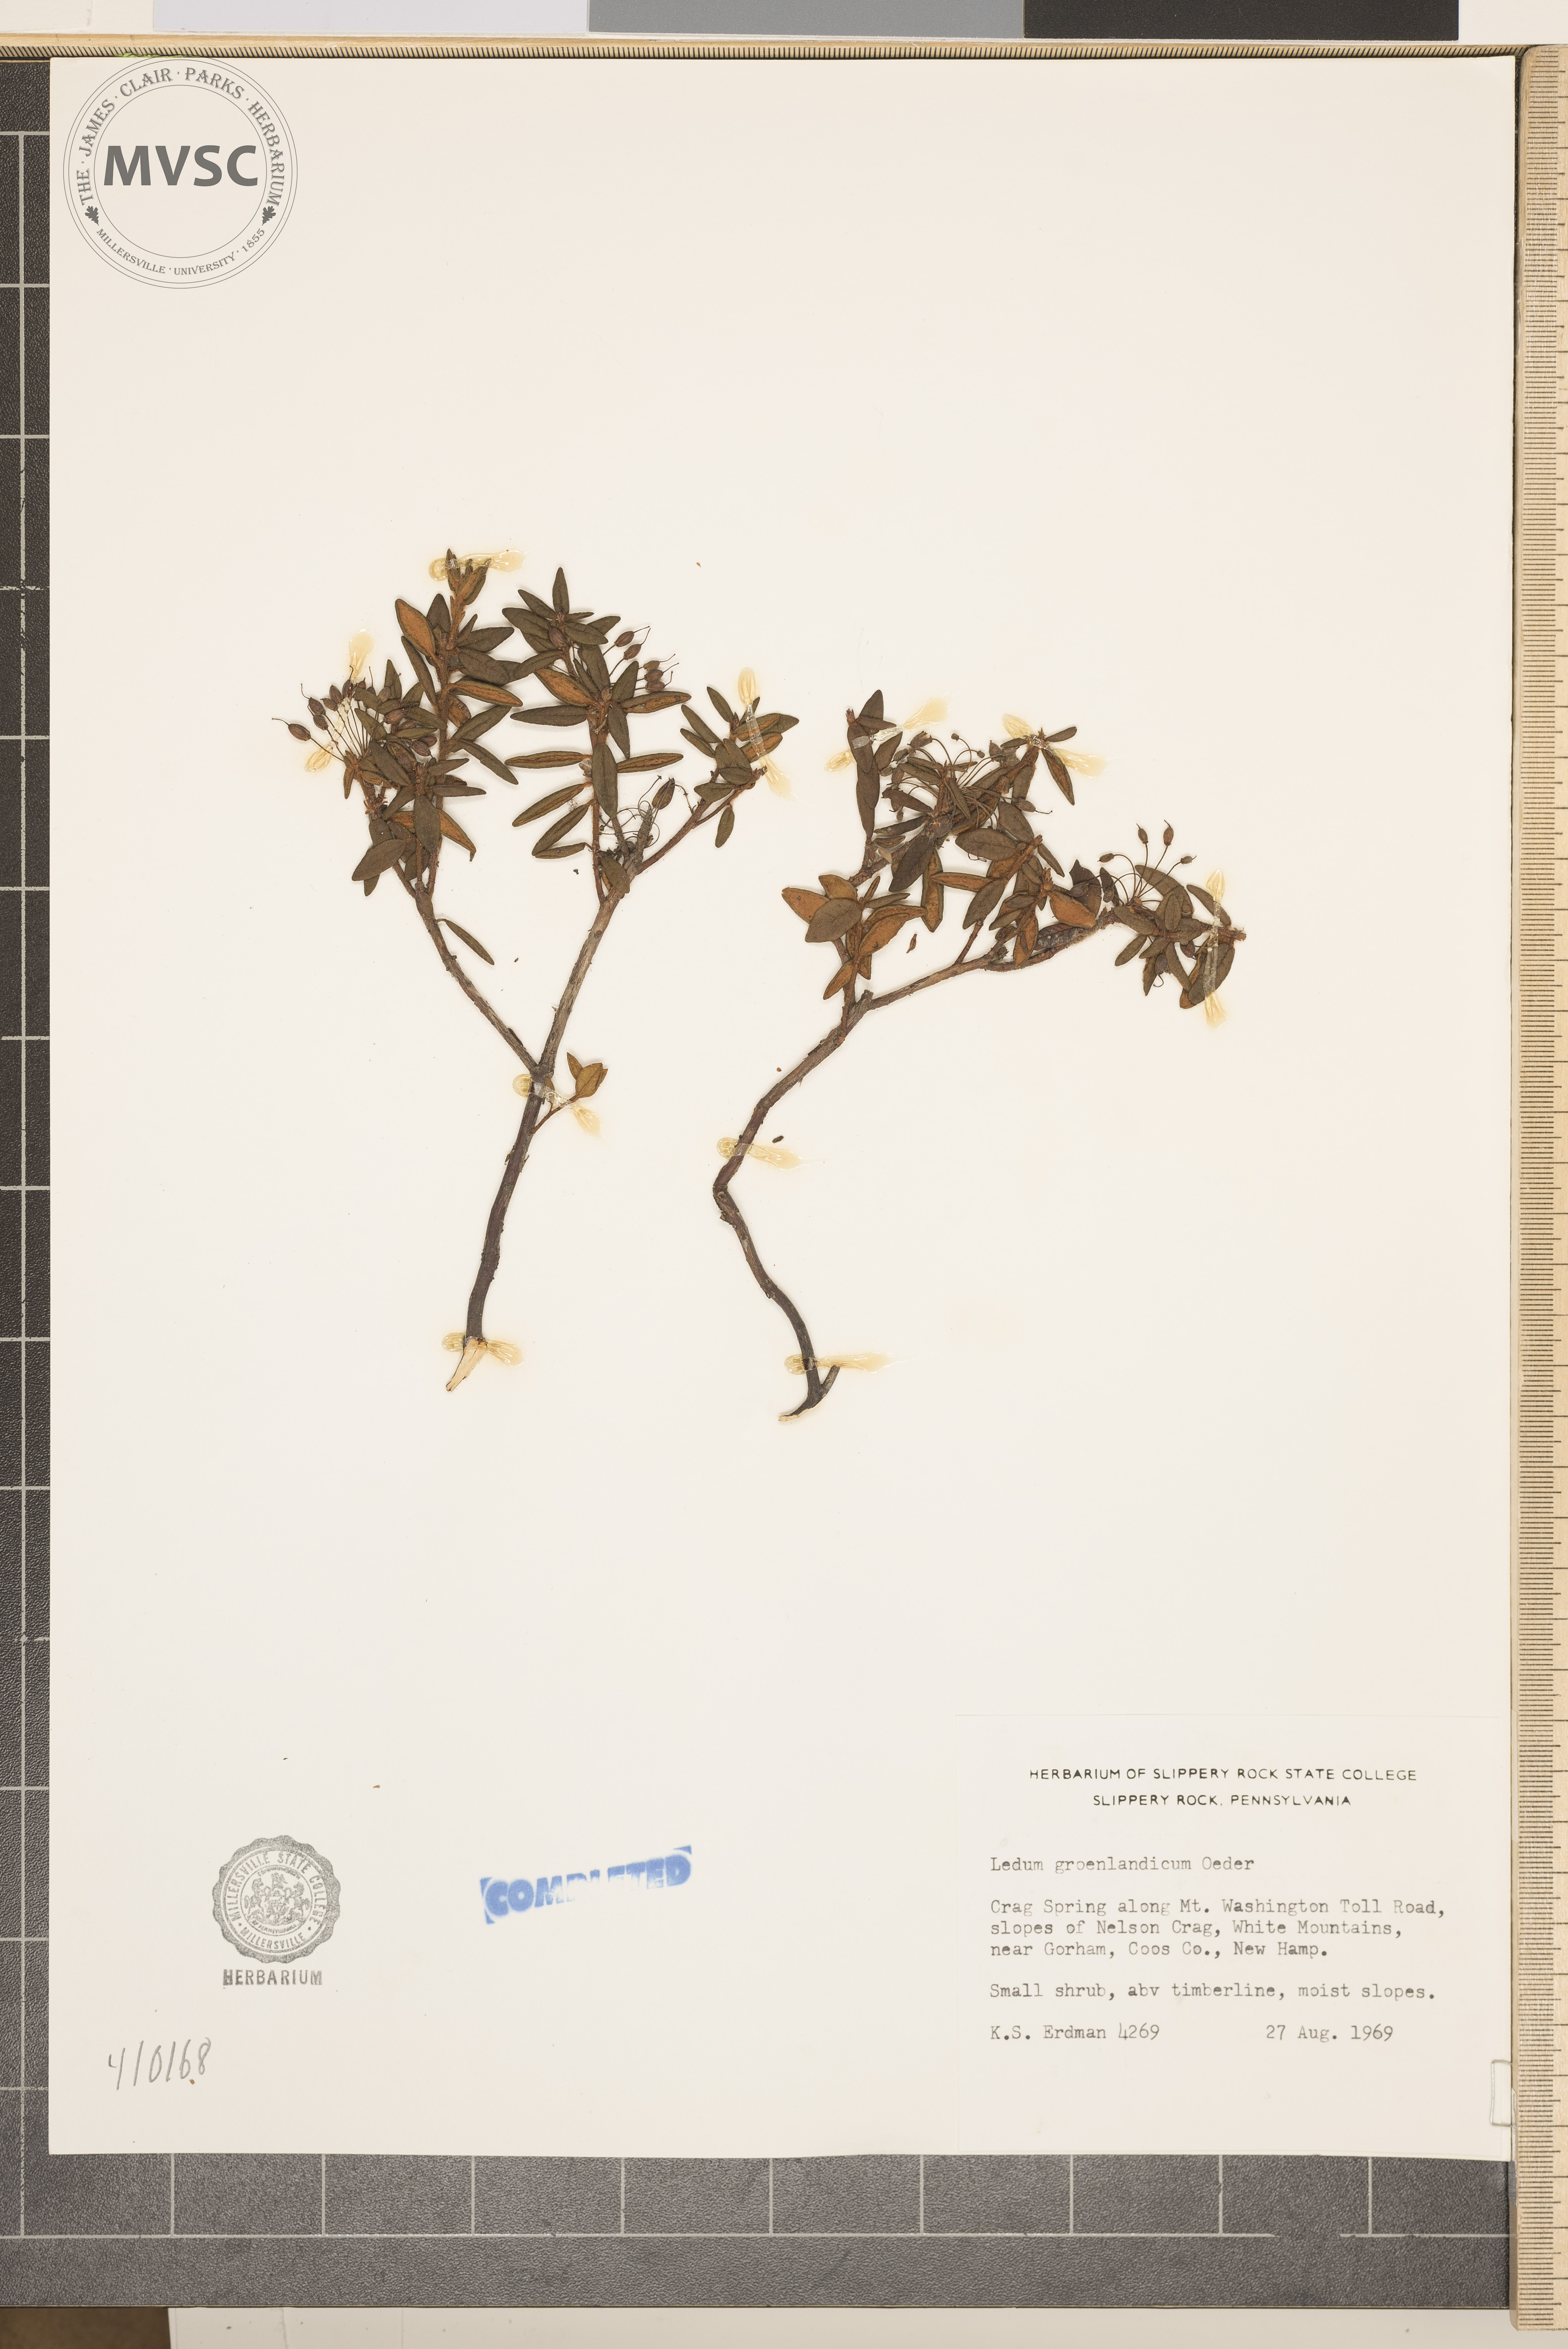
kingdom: Plantae
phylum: Tracheophyta
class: Magnoliopsida
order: Ericales
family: Ericaceae
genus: Rhododendron
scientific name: Rhododendron groenlandicum
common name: Bog labrador tea
